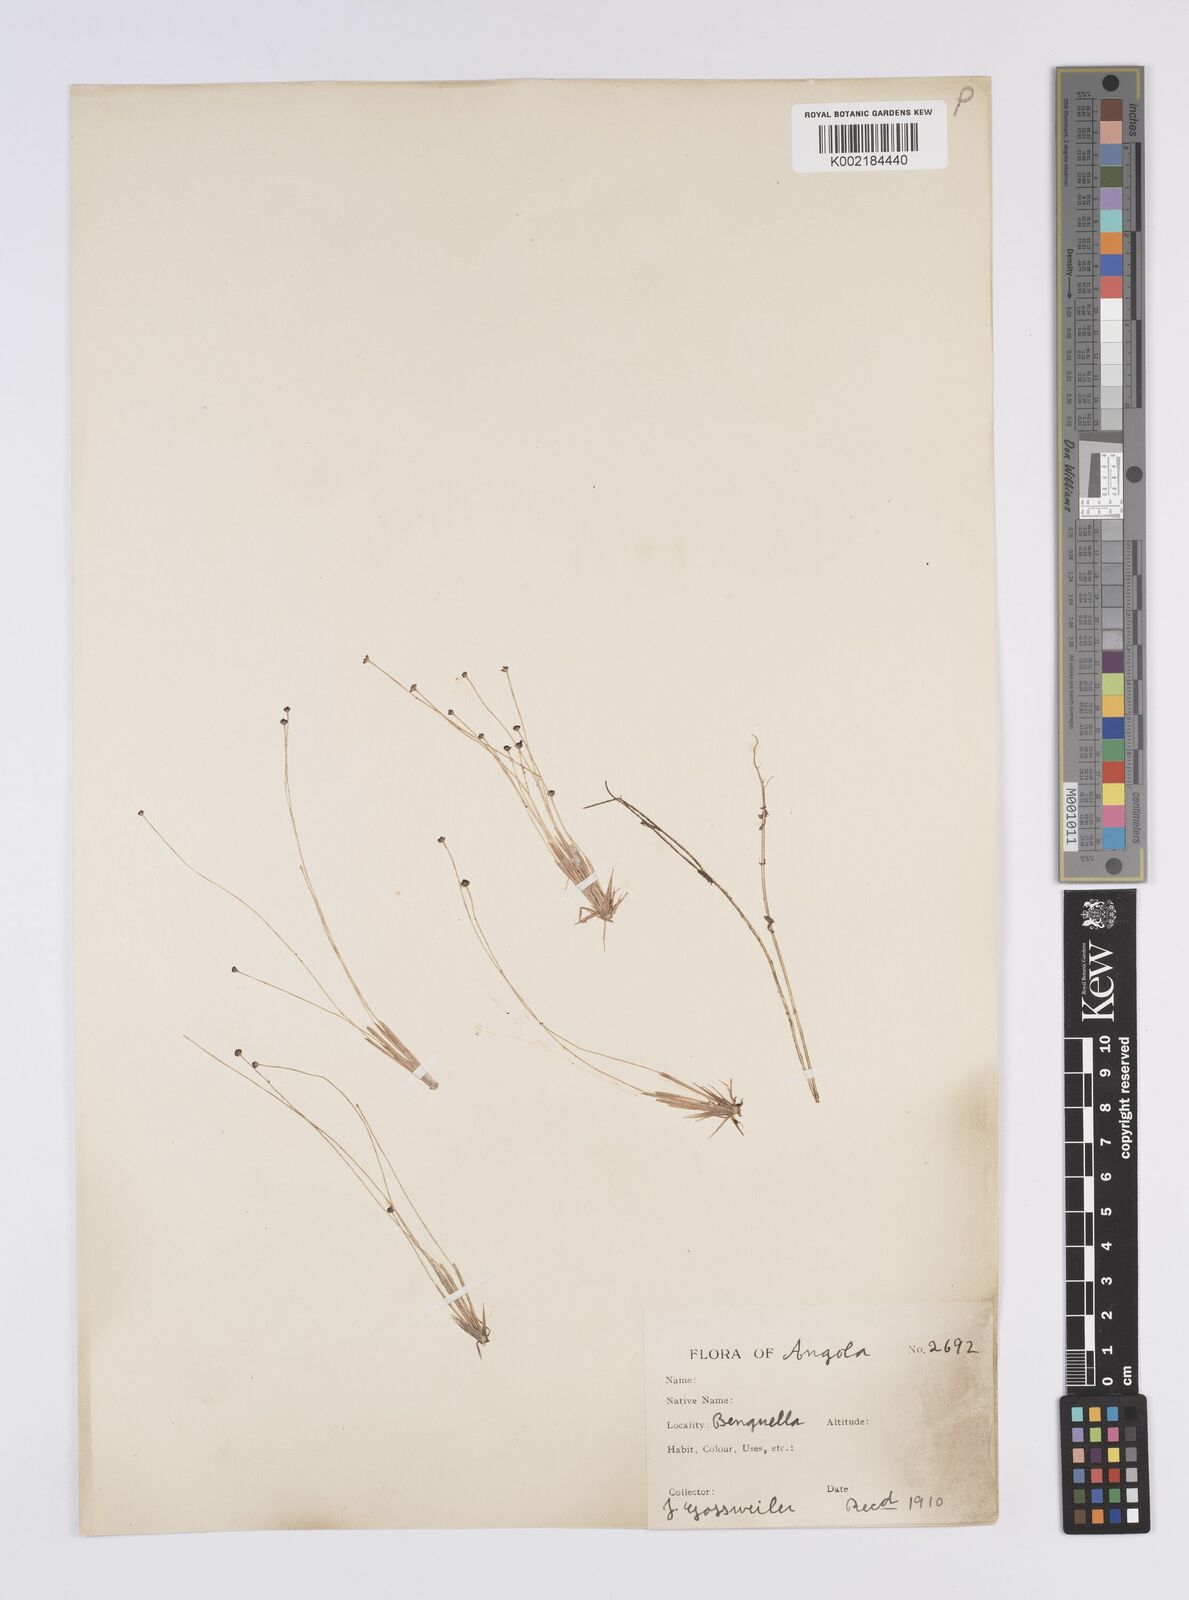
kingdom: Plantae
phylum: Tracheophyta
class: Liliopsida
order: Poales
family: Eriocaulaceae
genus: Eriocaulon
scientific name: Eriocaulon
